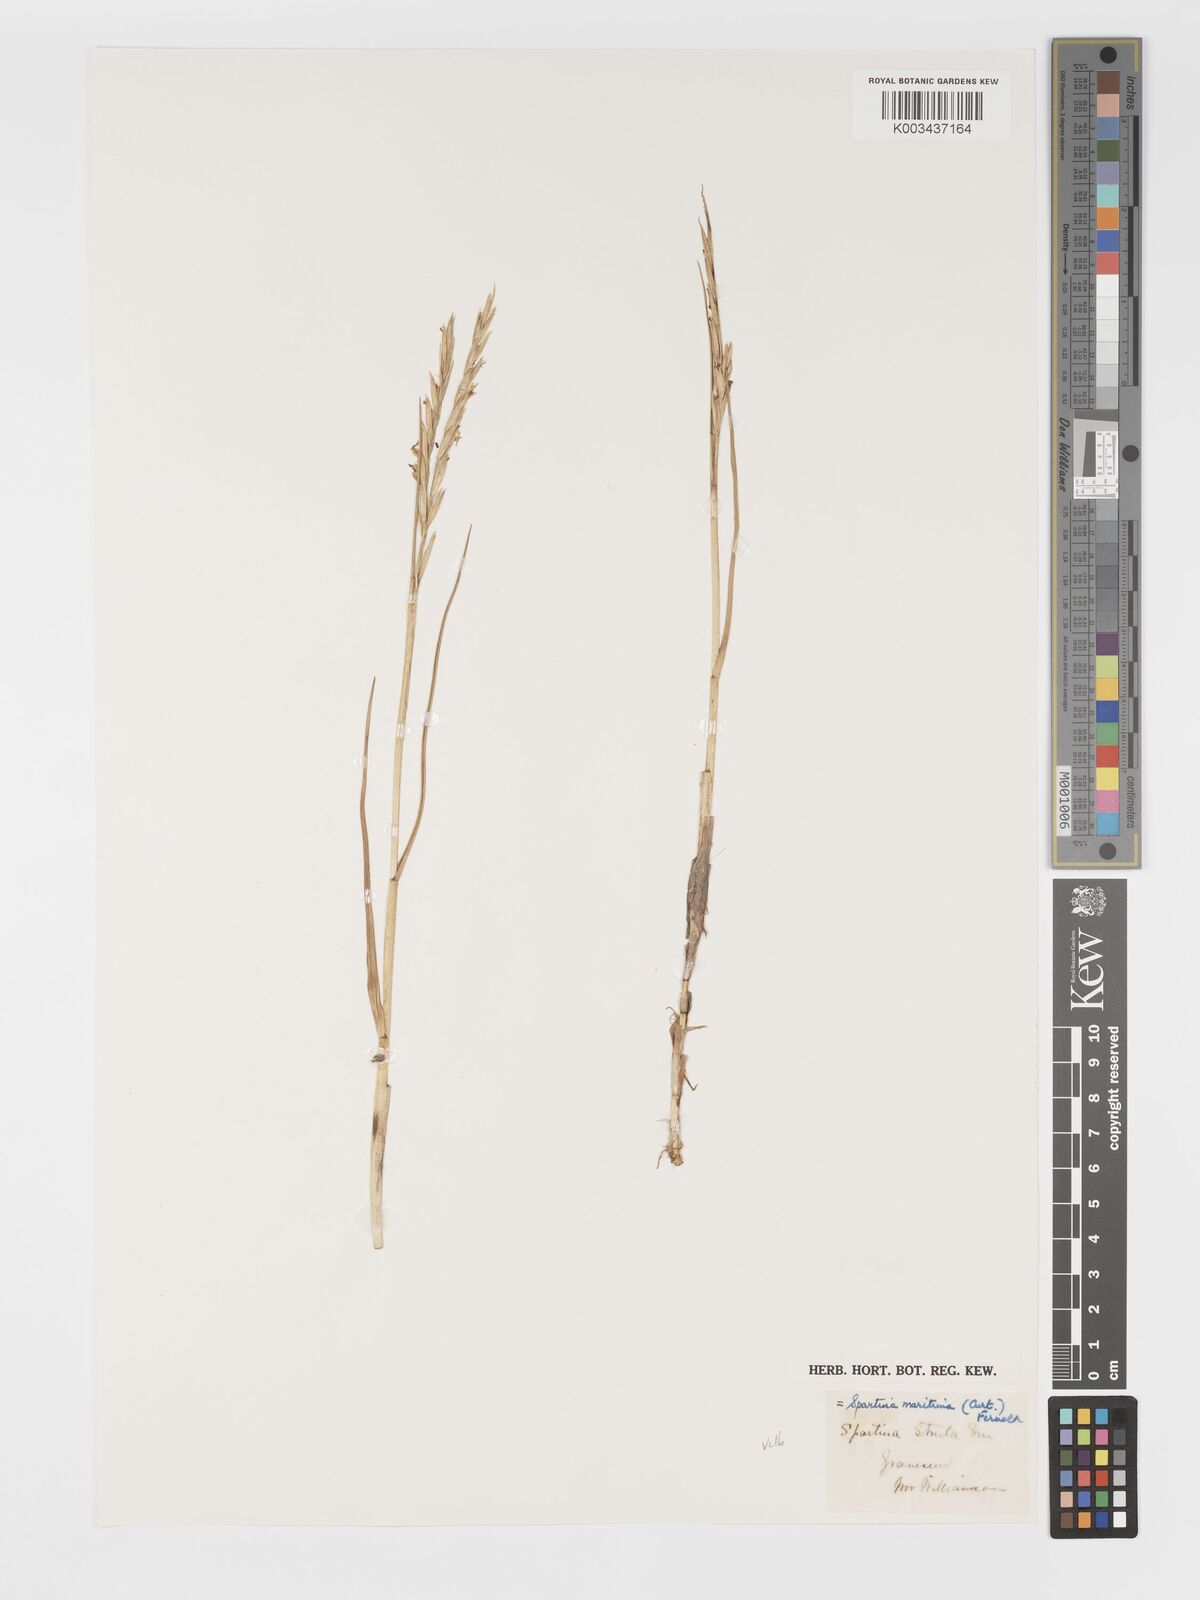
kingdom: Plantae
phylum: Tracheophyta
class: Liliopsida
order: Poales
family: Poaceae
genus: Sporobolus
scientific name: Sporobolus maritimus
